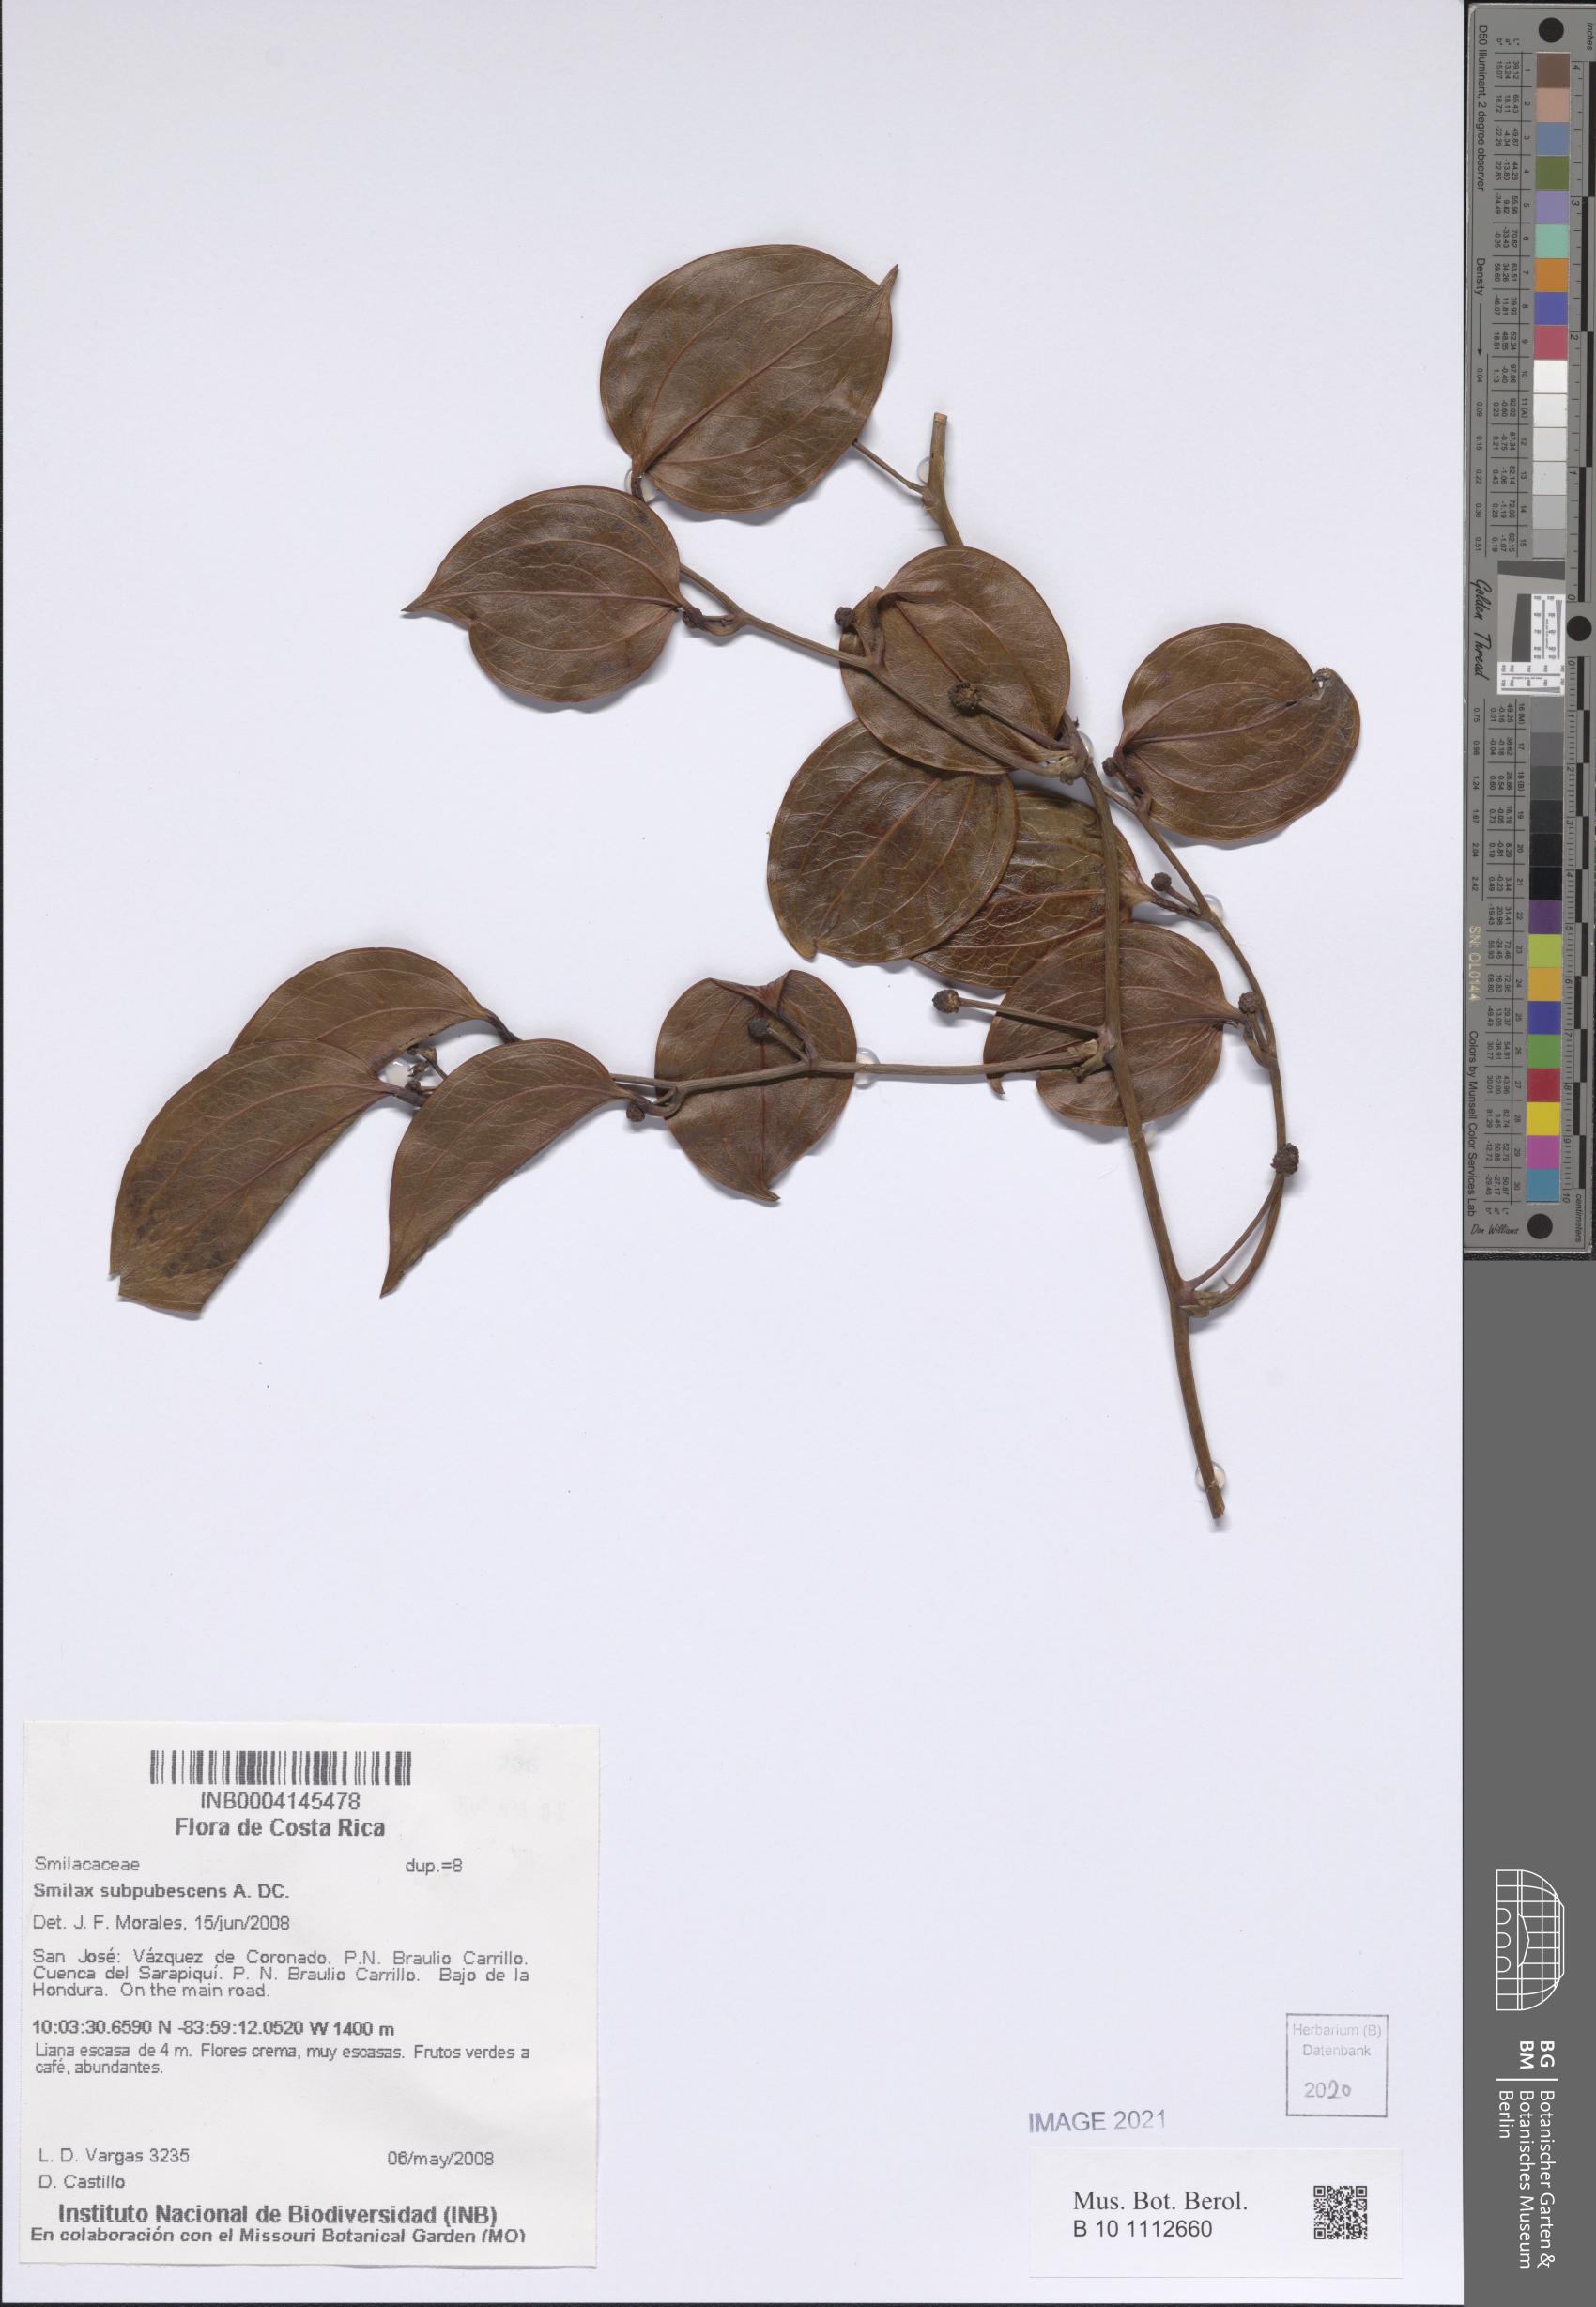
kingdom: Plantae
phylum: Tracheophyta
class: Liliopsida
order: Liliales
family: Smilacaceae
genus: Smilax
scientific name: Smilax subpubescens
